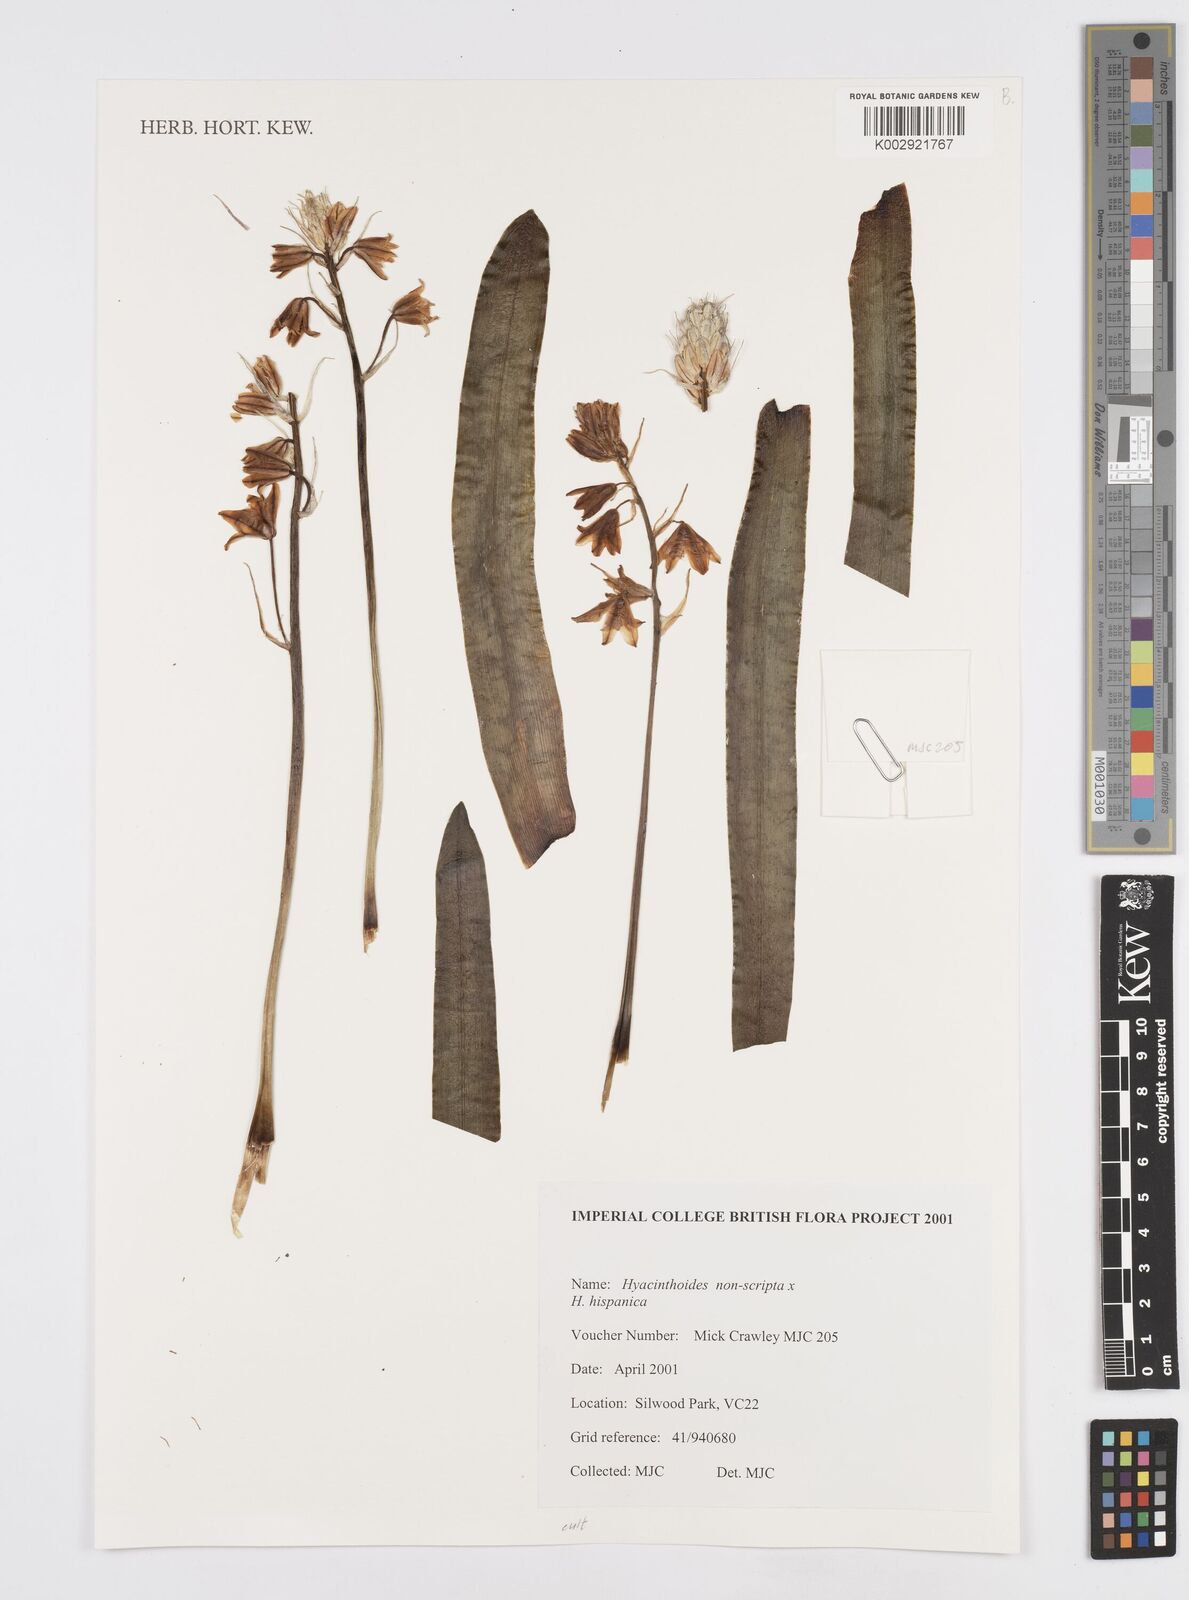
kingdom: Plantae
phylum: Tracheophyta
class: Liliopsida
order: Asparagales
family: Asparagaceae
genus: Hyacinthoides
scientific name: Hyacinthoides non-scripta
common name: Bluebell
